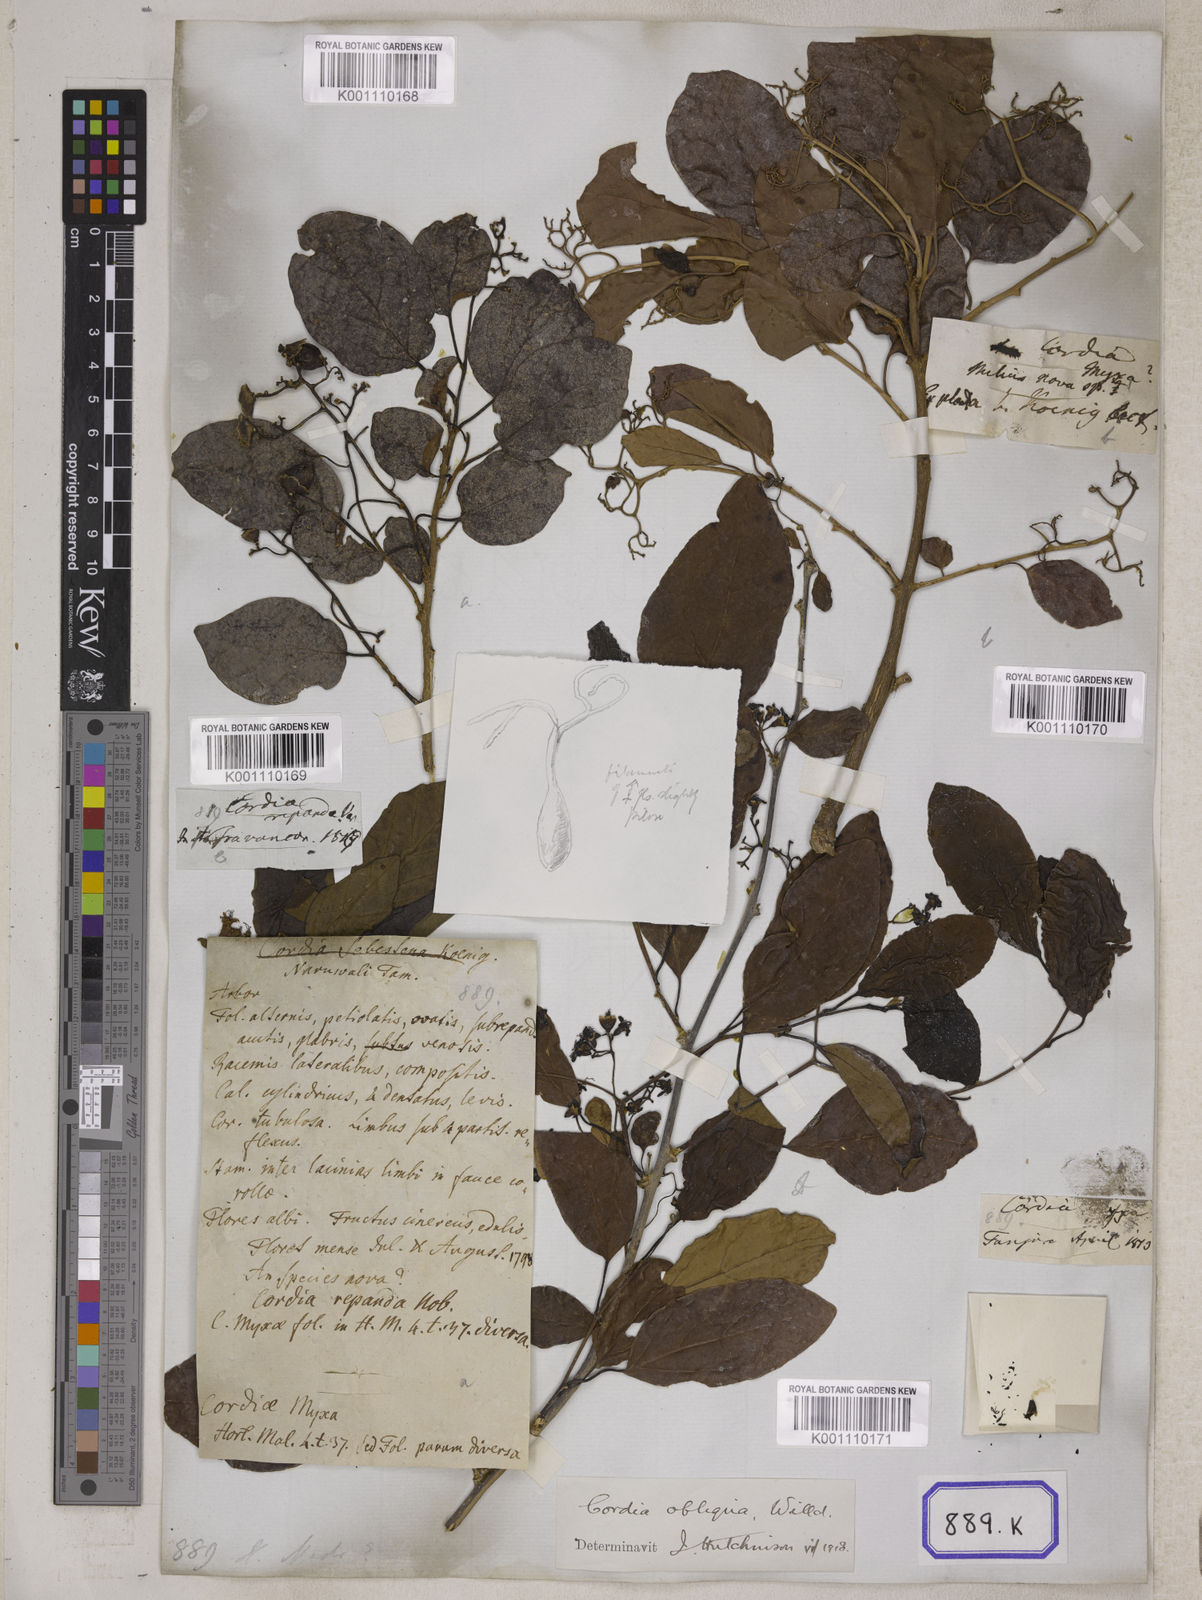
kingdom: Plantae
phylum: Tracheophyta
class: Magnoliopsida
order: Boraginales
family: Cordiaceae
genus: Cordia
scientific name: Cordia myxa
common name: Assyrian plum
